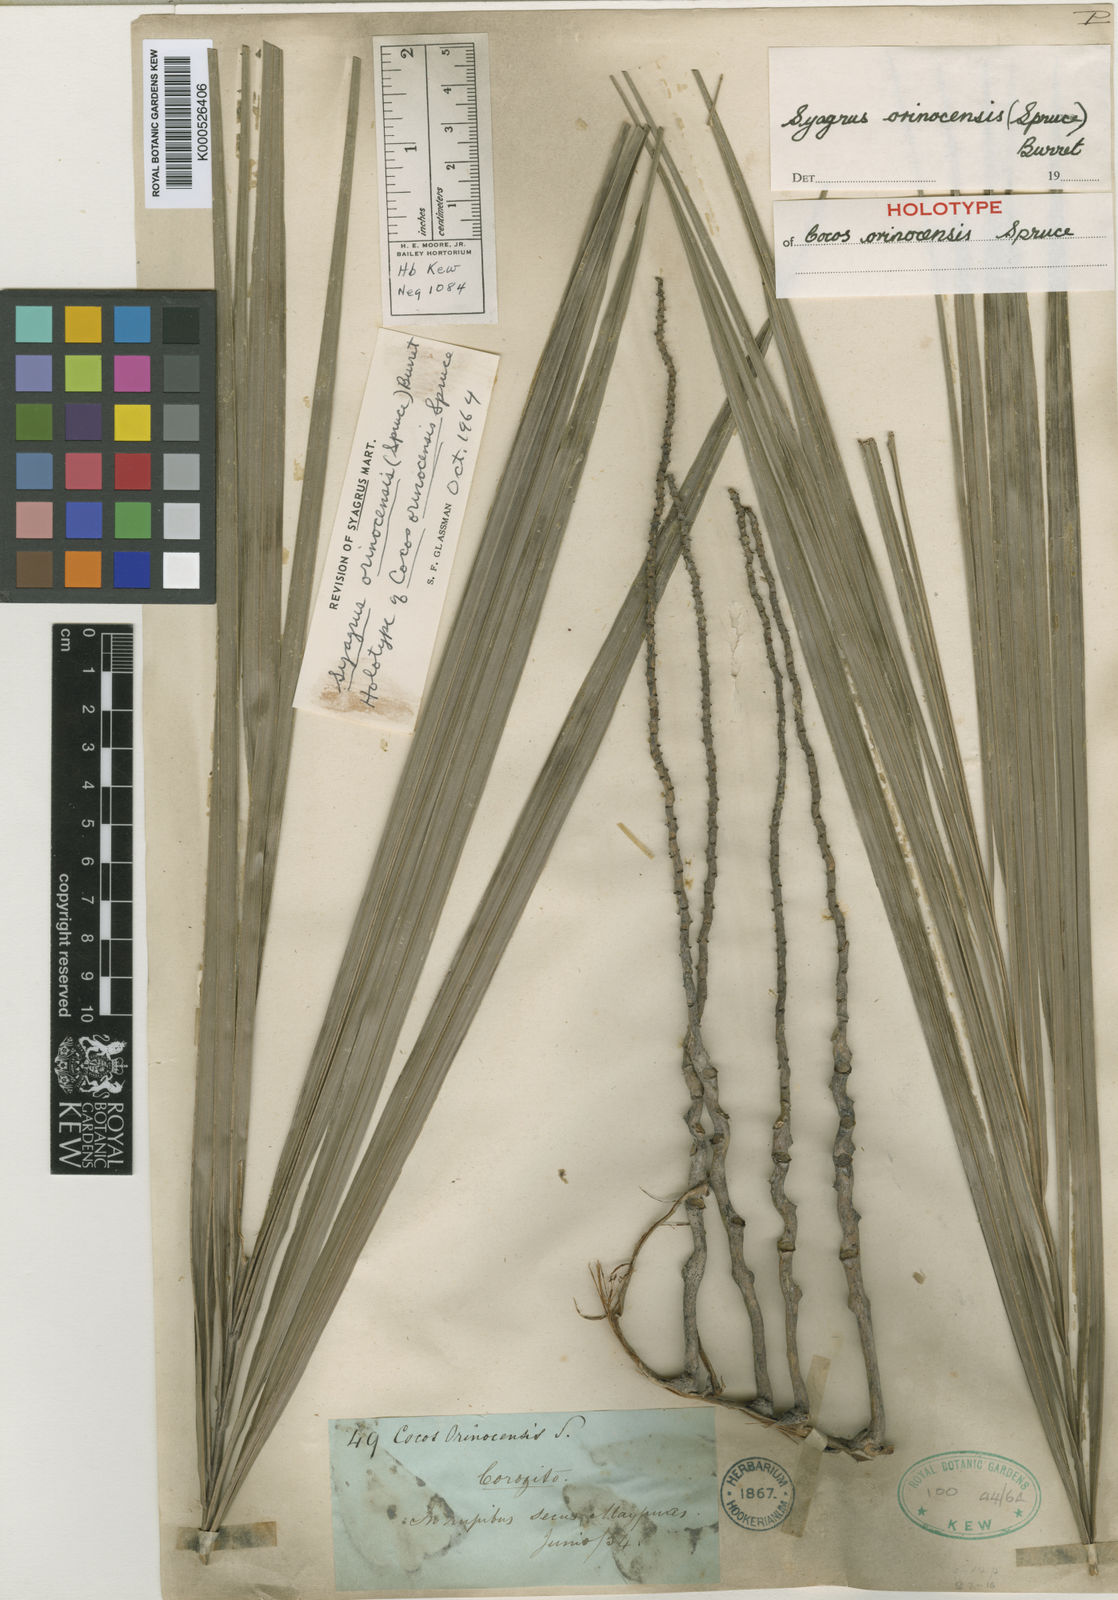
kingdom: Plantae
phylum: Tracheophyta
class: Liliopsida
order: Arecales
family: Arecaceae
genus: Syagrus
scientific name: Syagrus orinocensis
